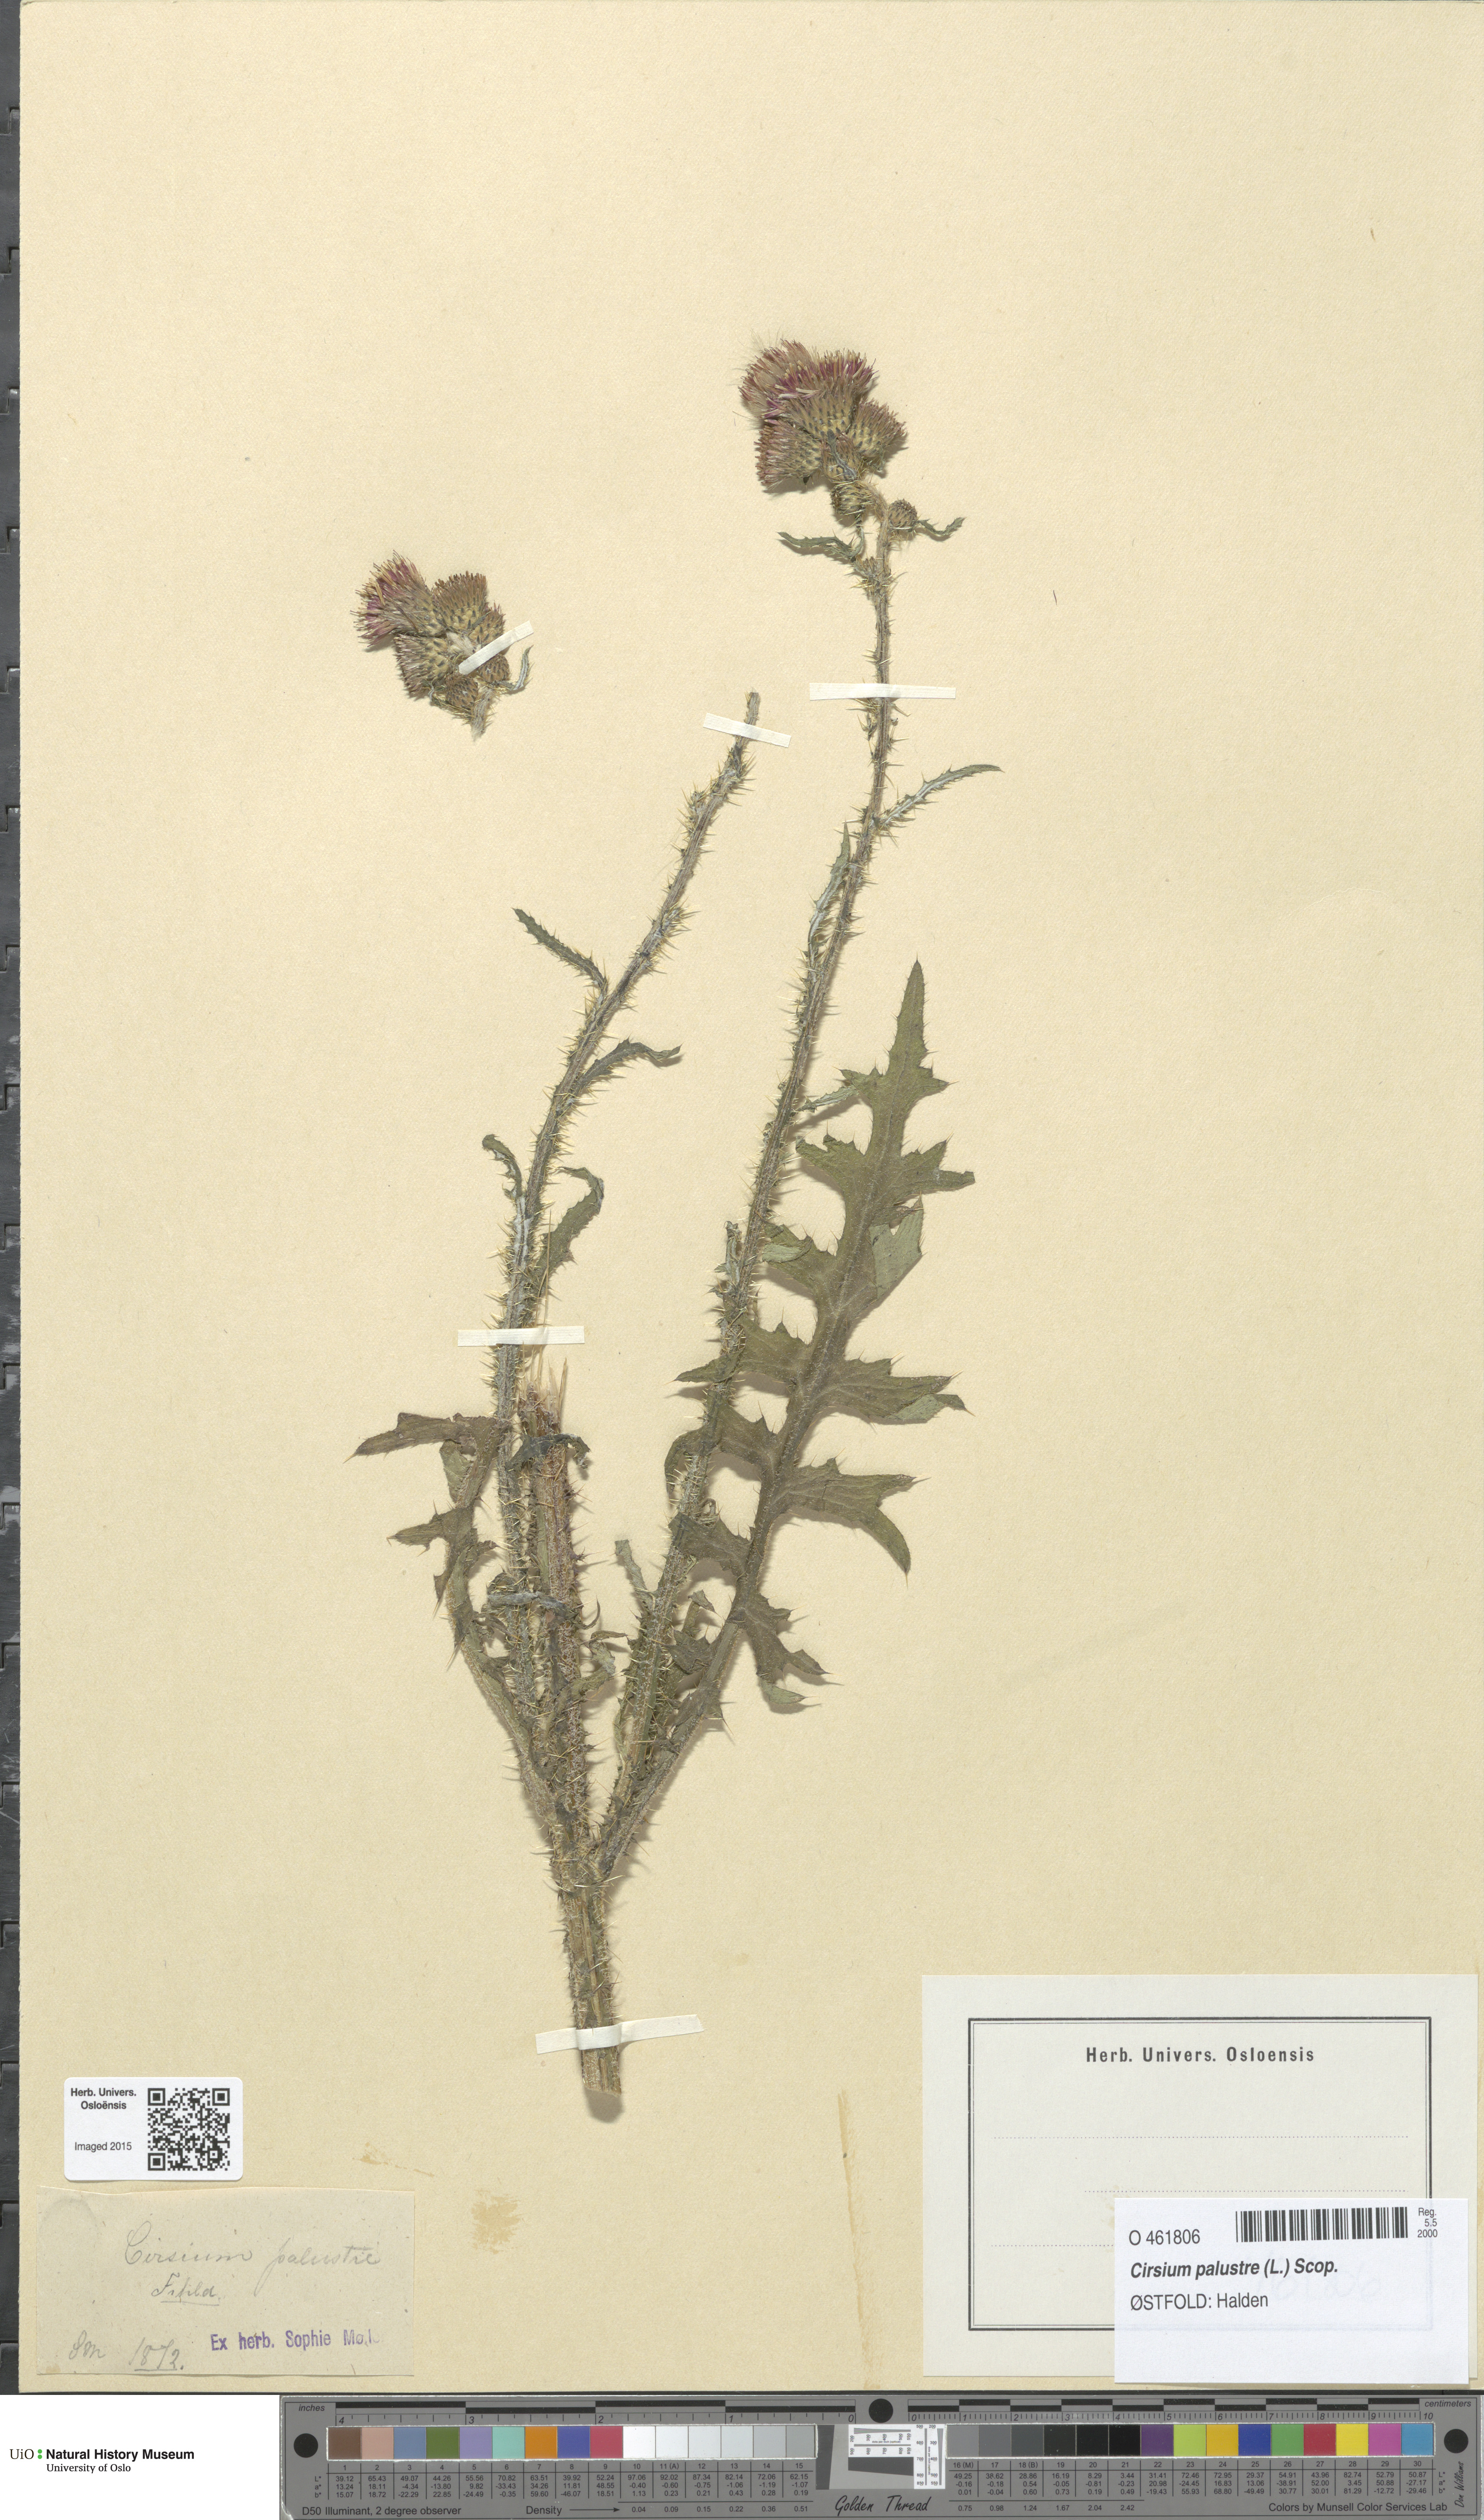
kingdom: Plantae
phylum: Tracheophyta
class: Magnoliopsida
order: Asterales
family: Asteraceae
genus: Cirsium
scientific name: Cirsium palustre
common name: Marsh thistle
